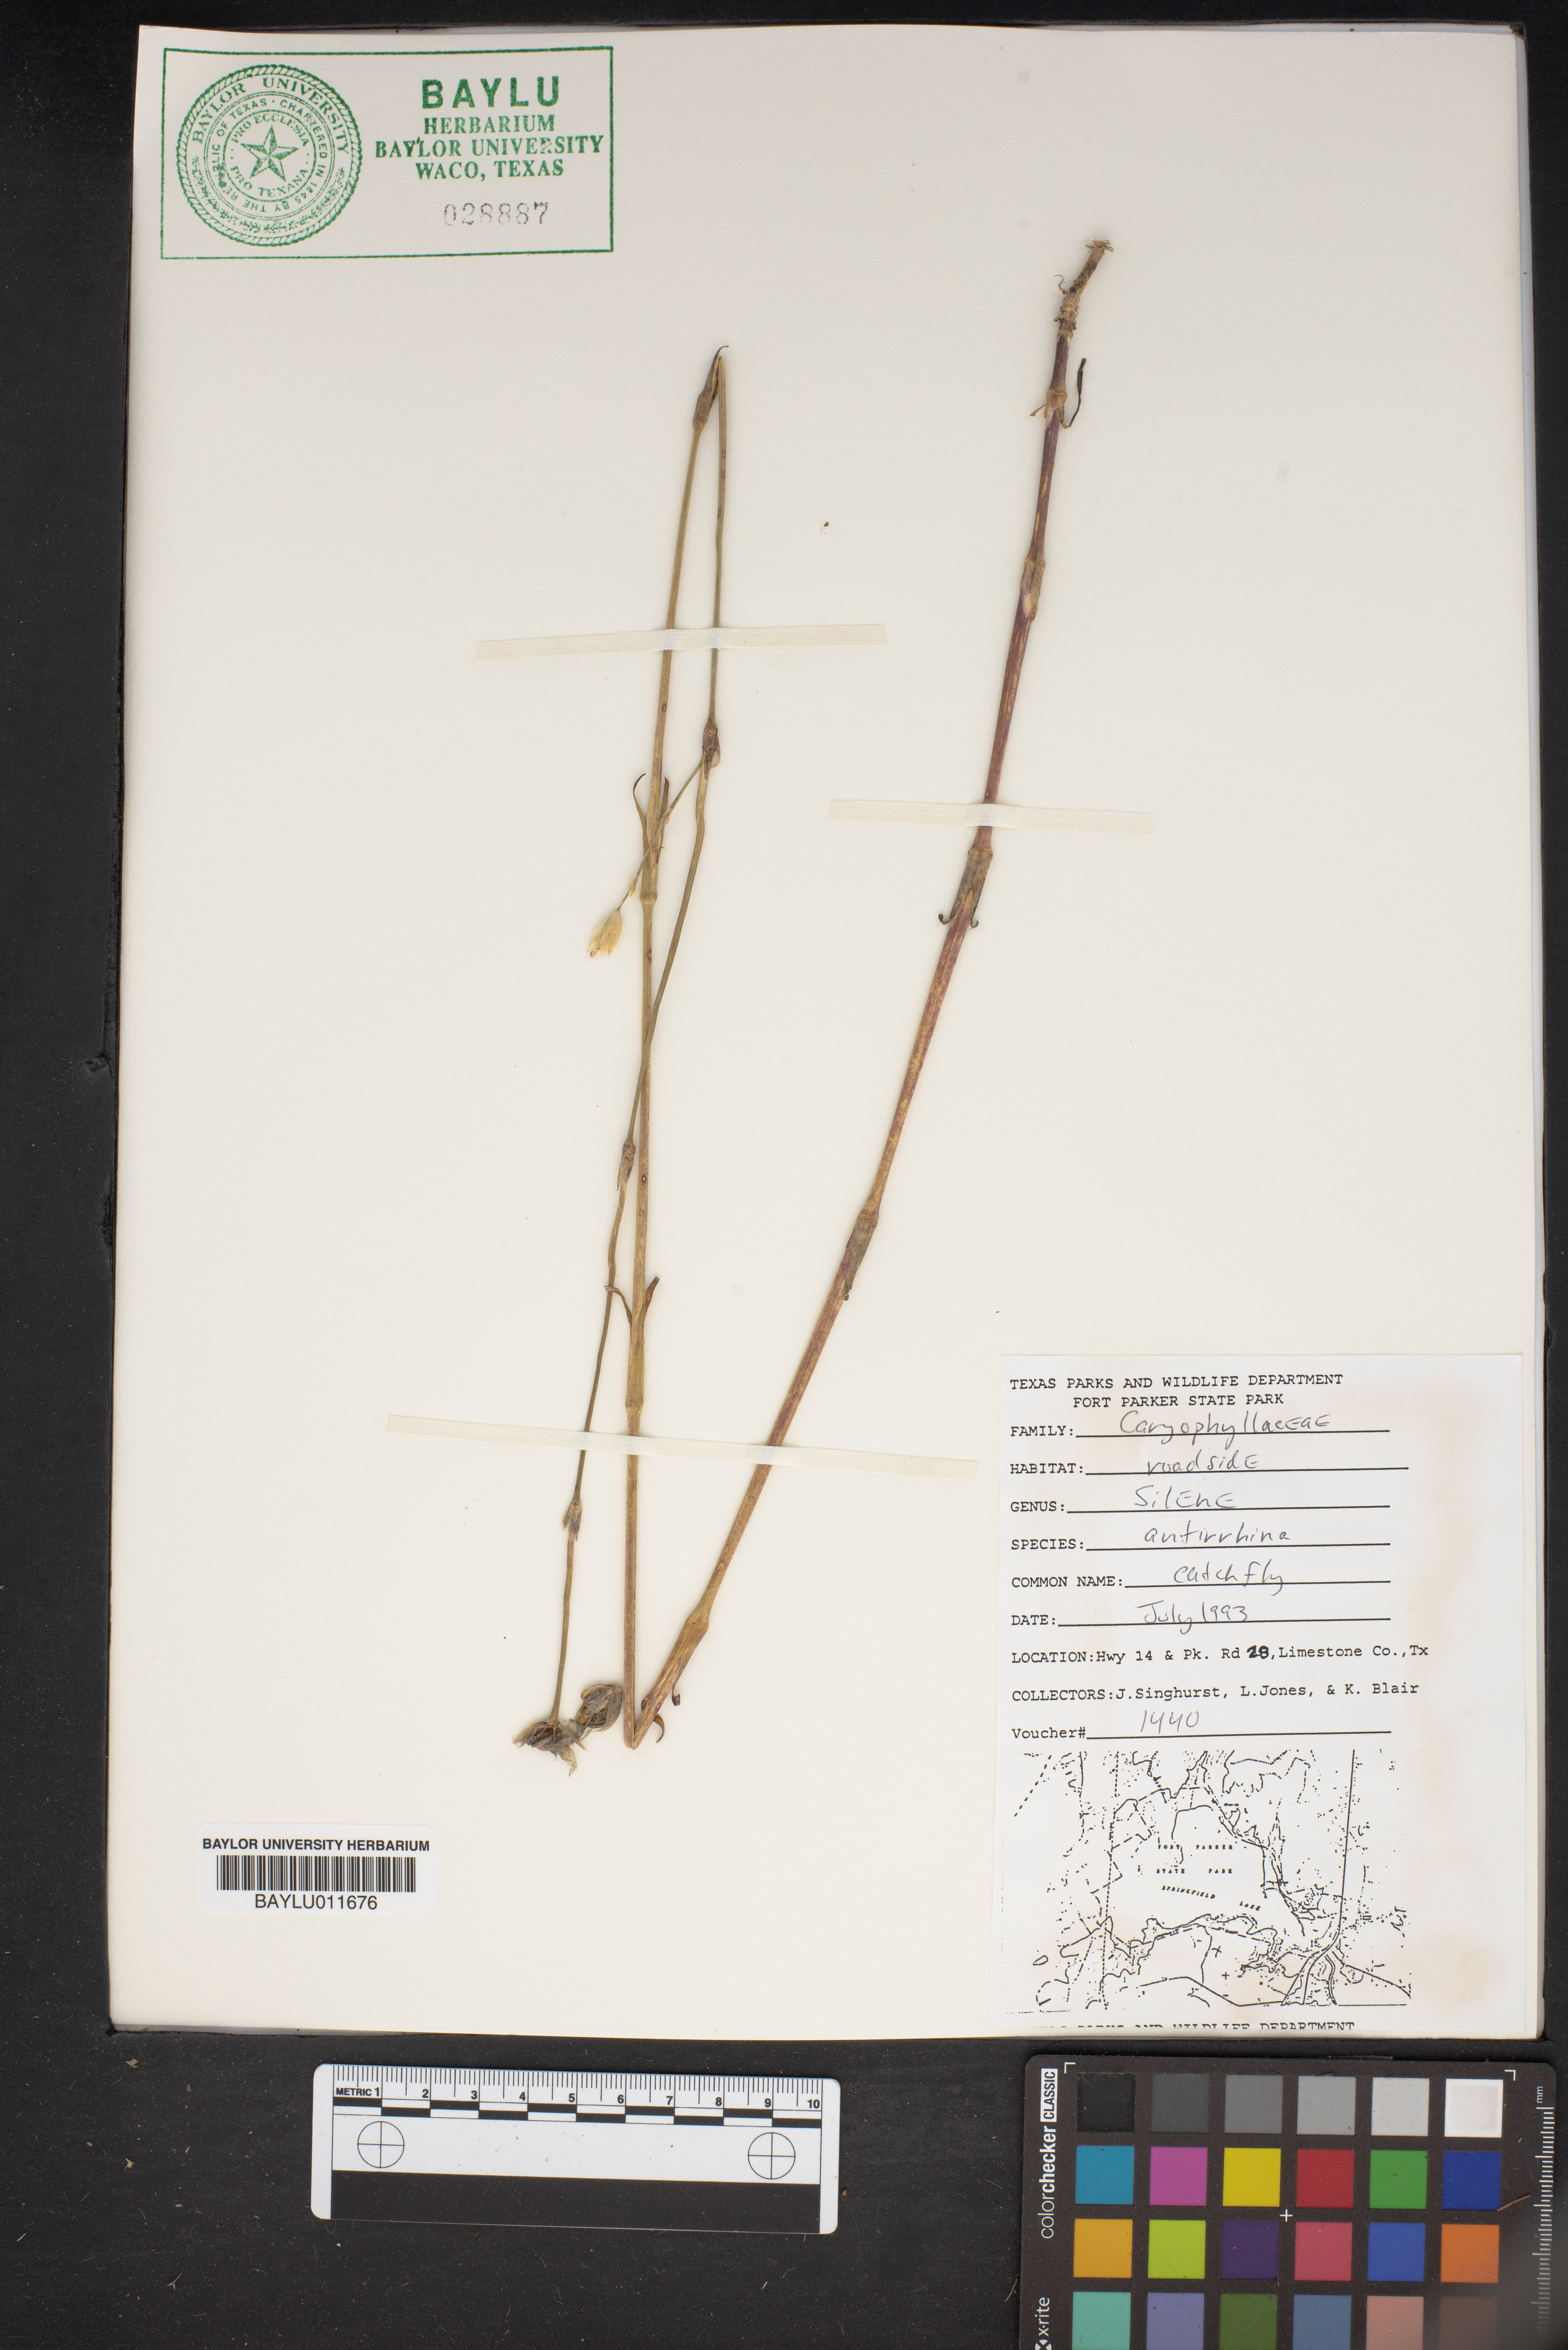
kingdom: Plantae
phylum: Tracheophyta
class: Magnoliopsida
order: Caryophyllales
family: Caryophyllaceae
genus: Silene
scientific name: Silene antirrhina
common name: Sleepy catchfly
